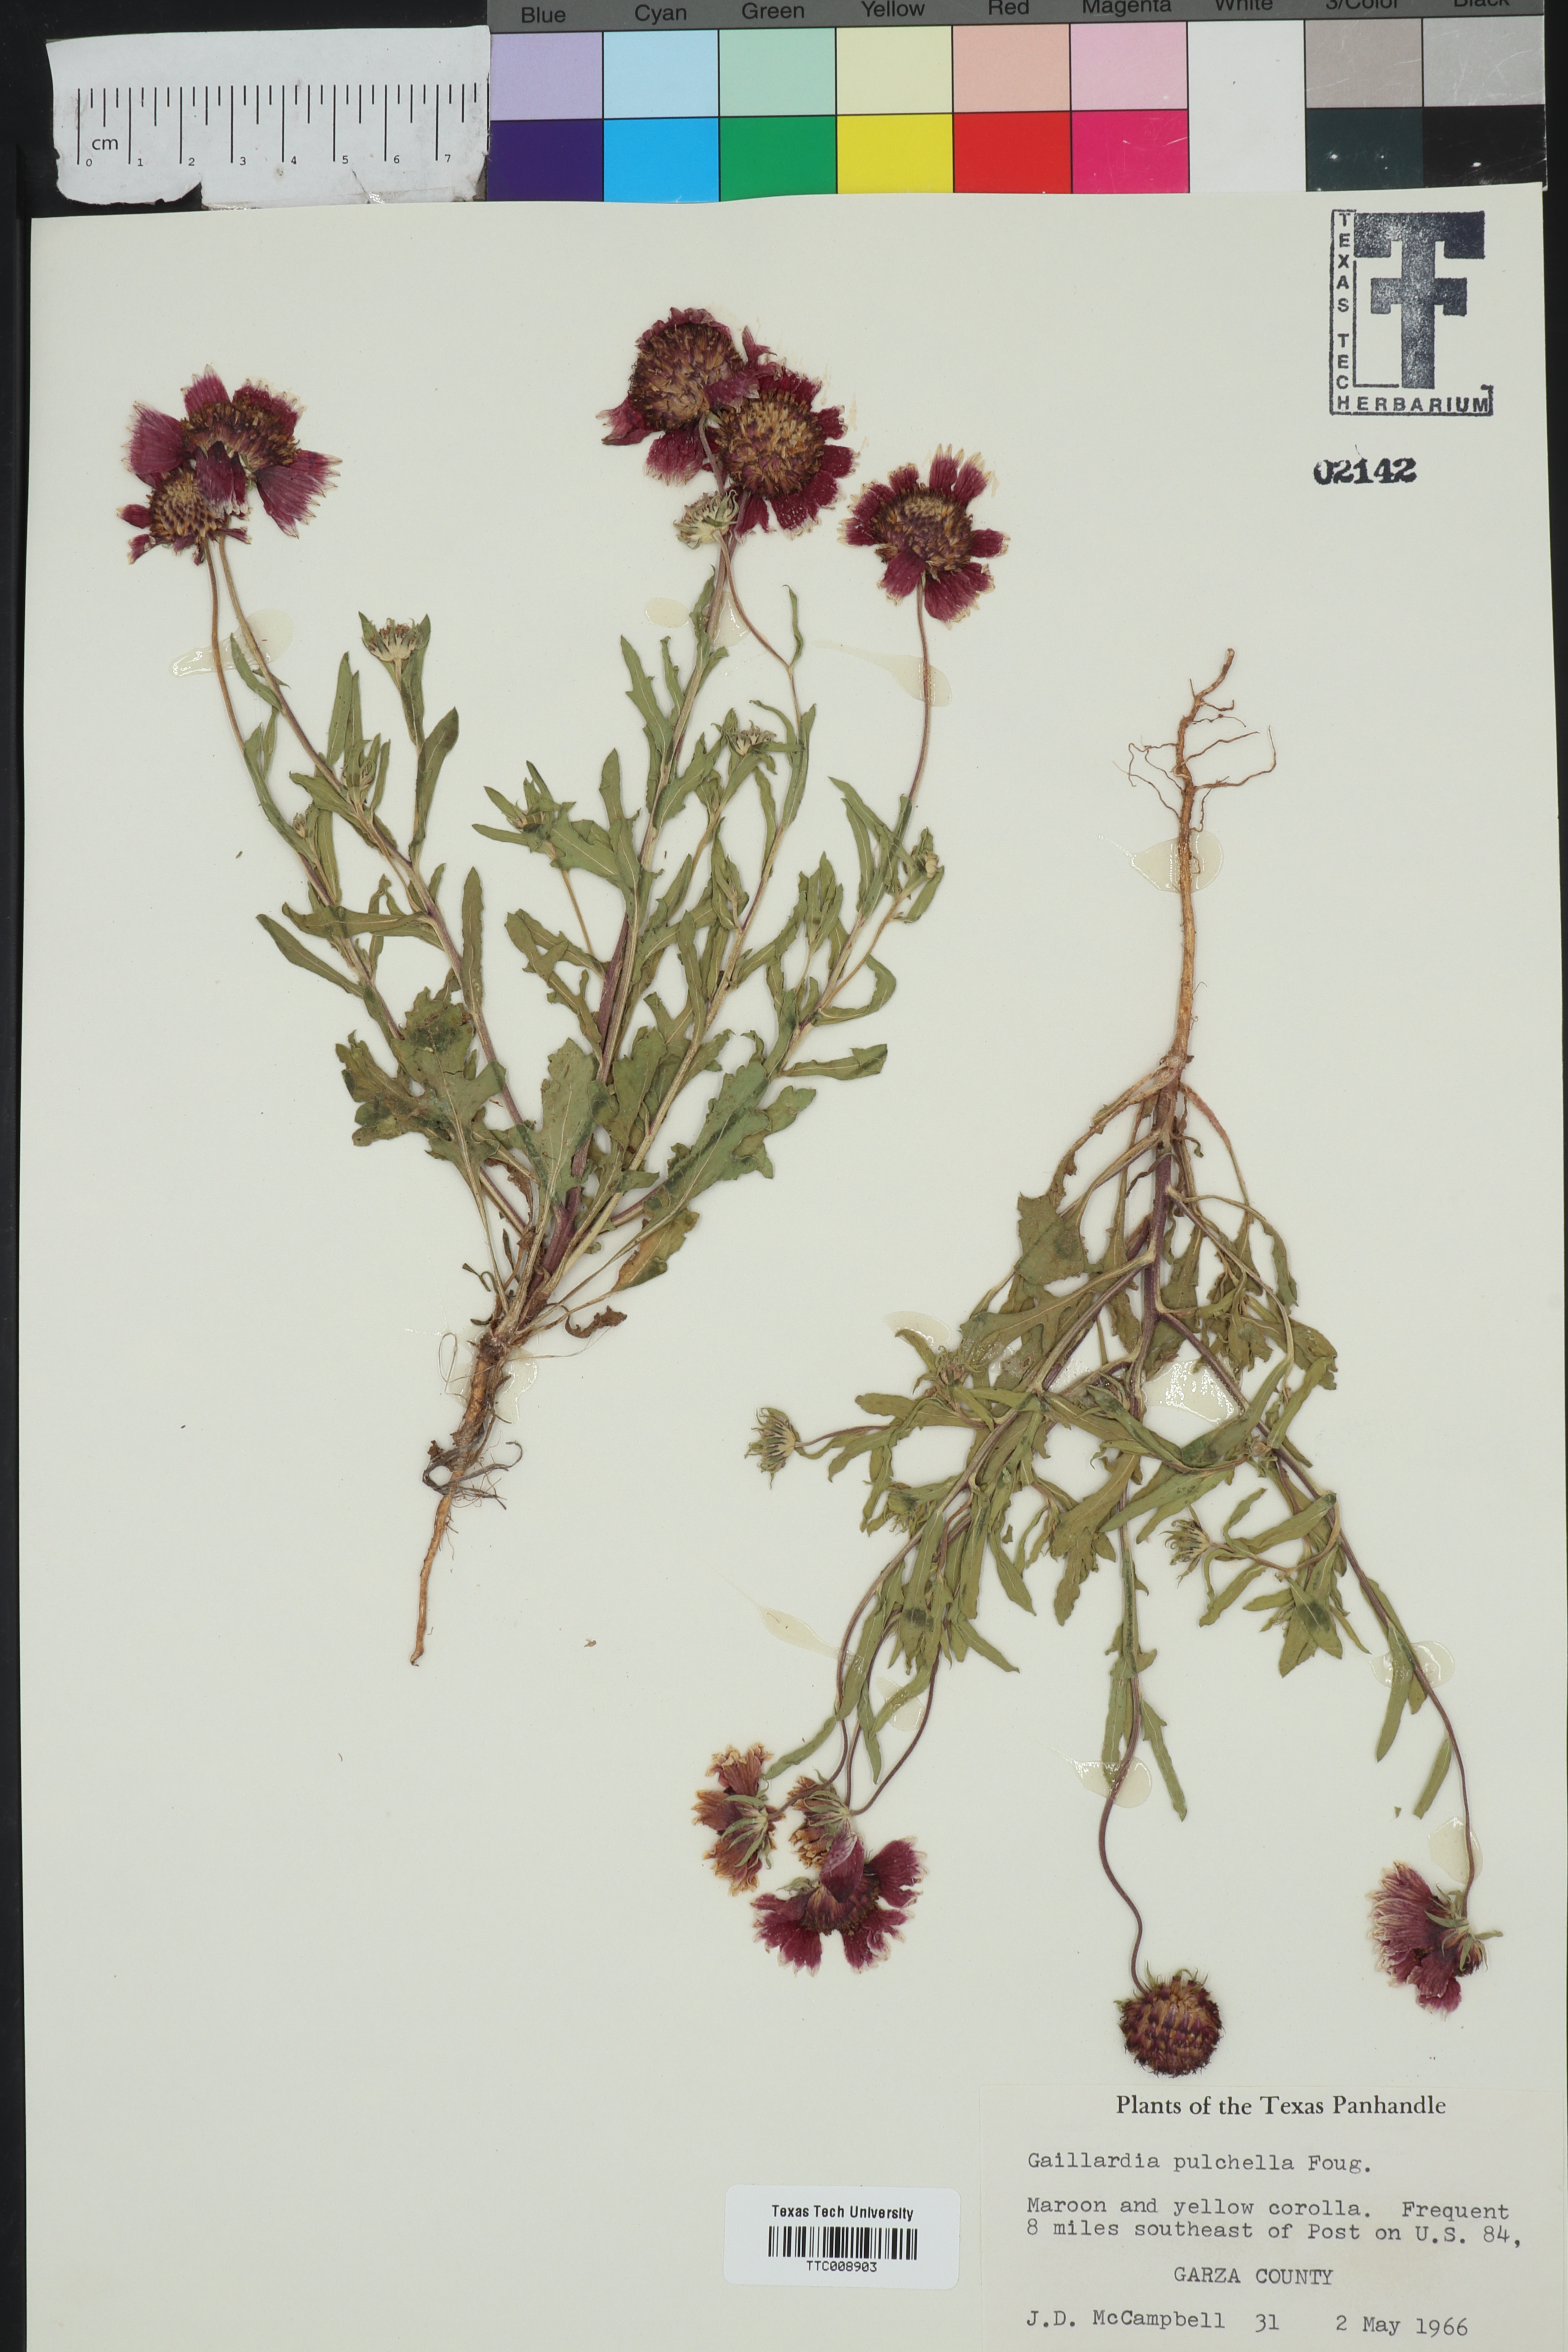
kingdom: Plantae
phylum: Tracheophyta
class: Magnoliopsida
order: Asterales
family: Asteraceae
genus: Gaillardia
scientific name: Gaillardia pulchella
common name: Firewheel
